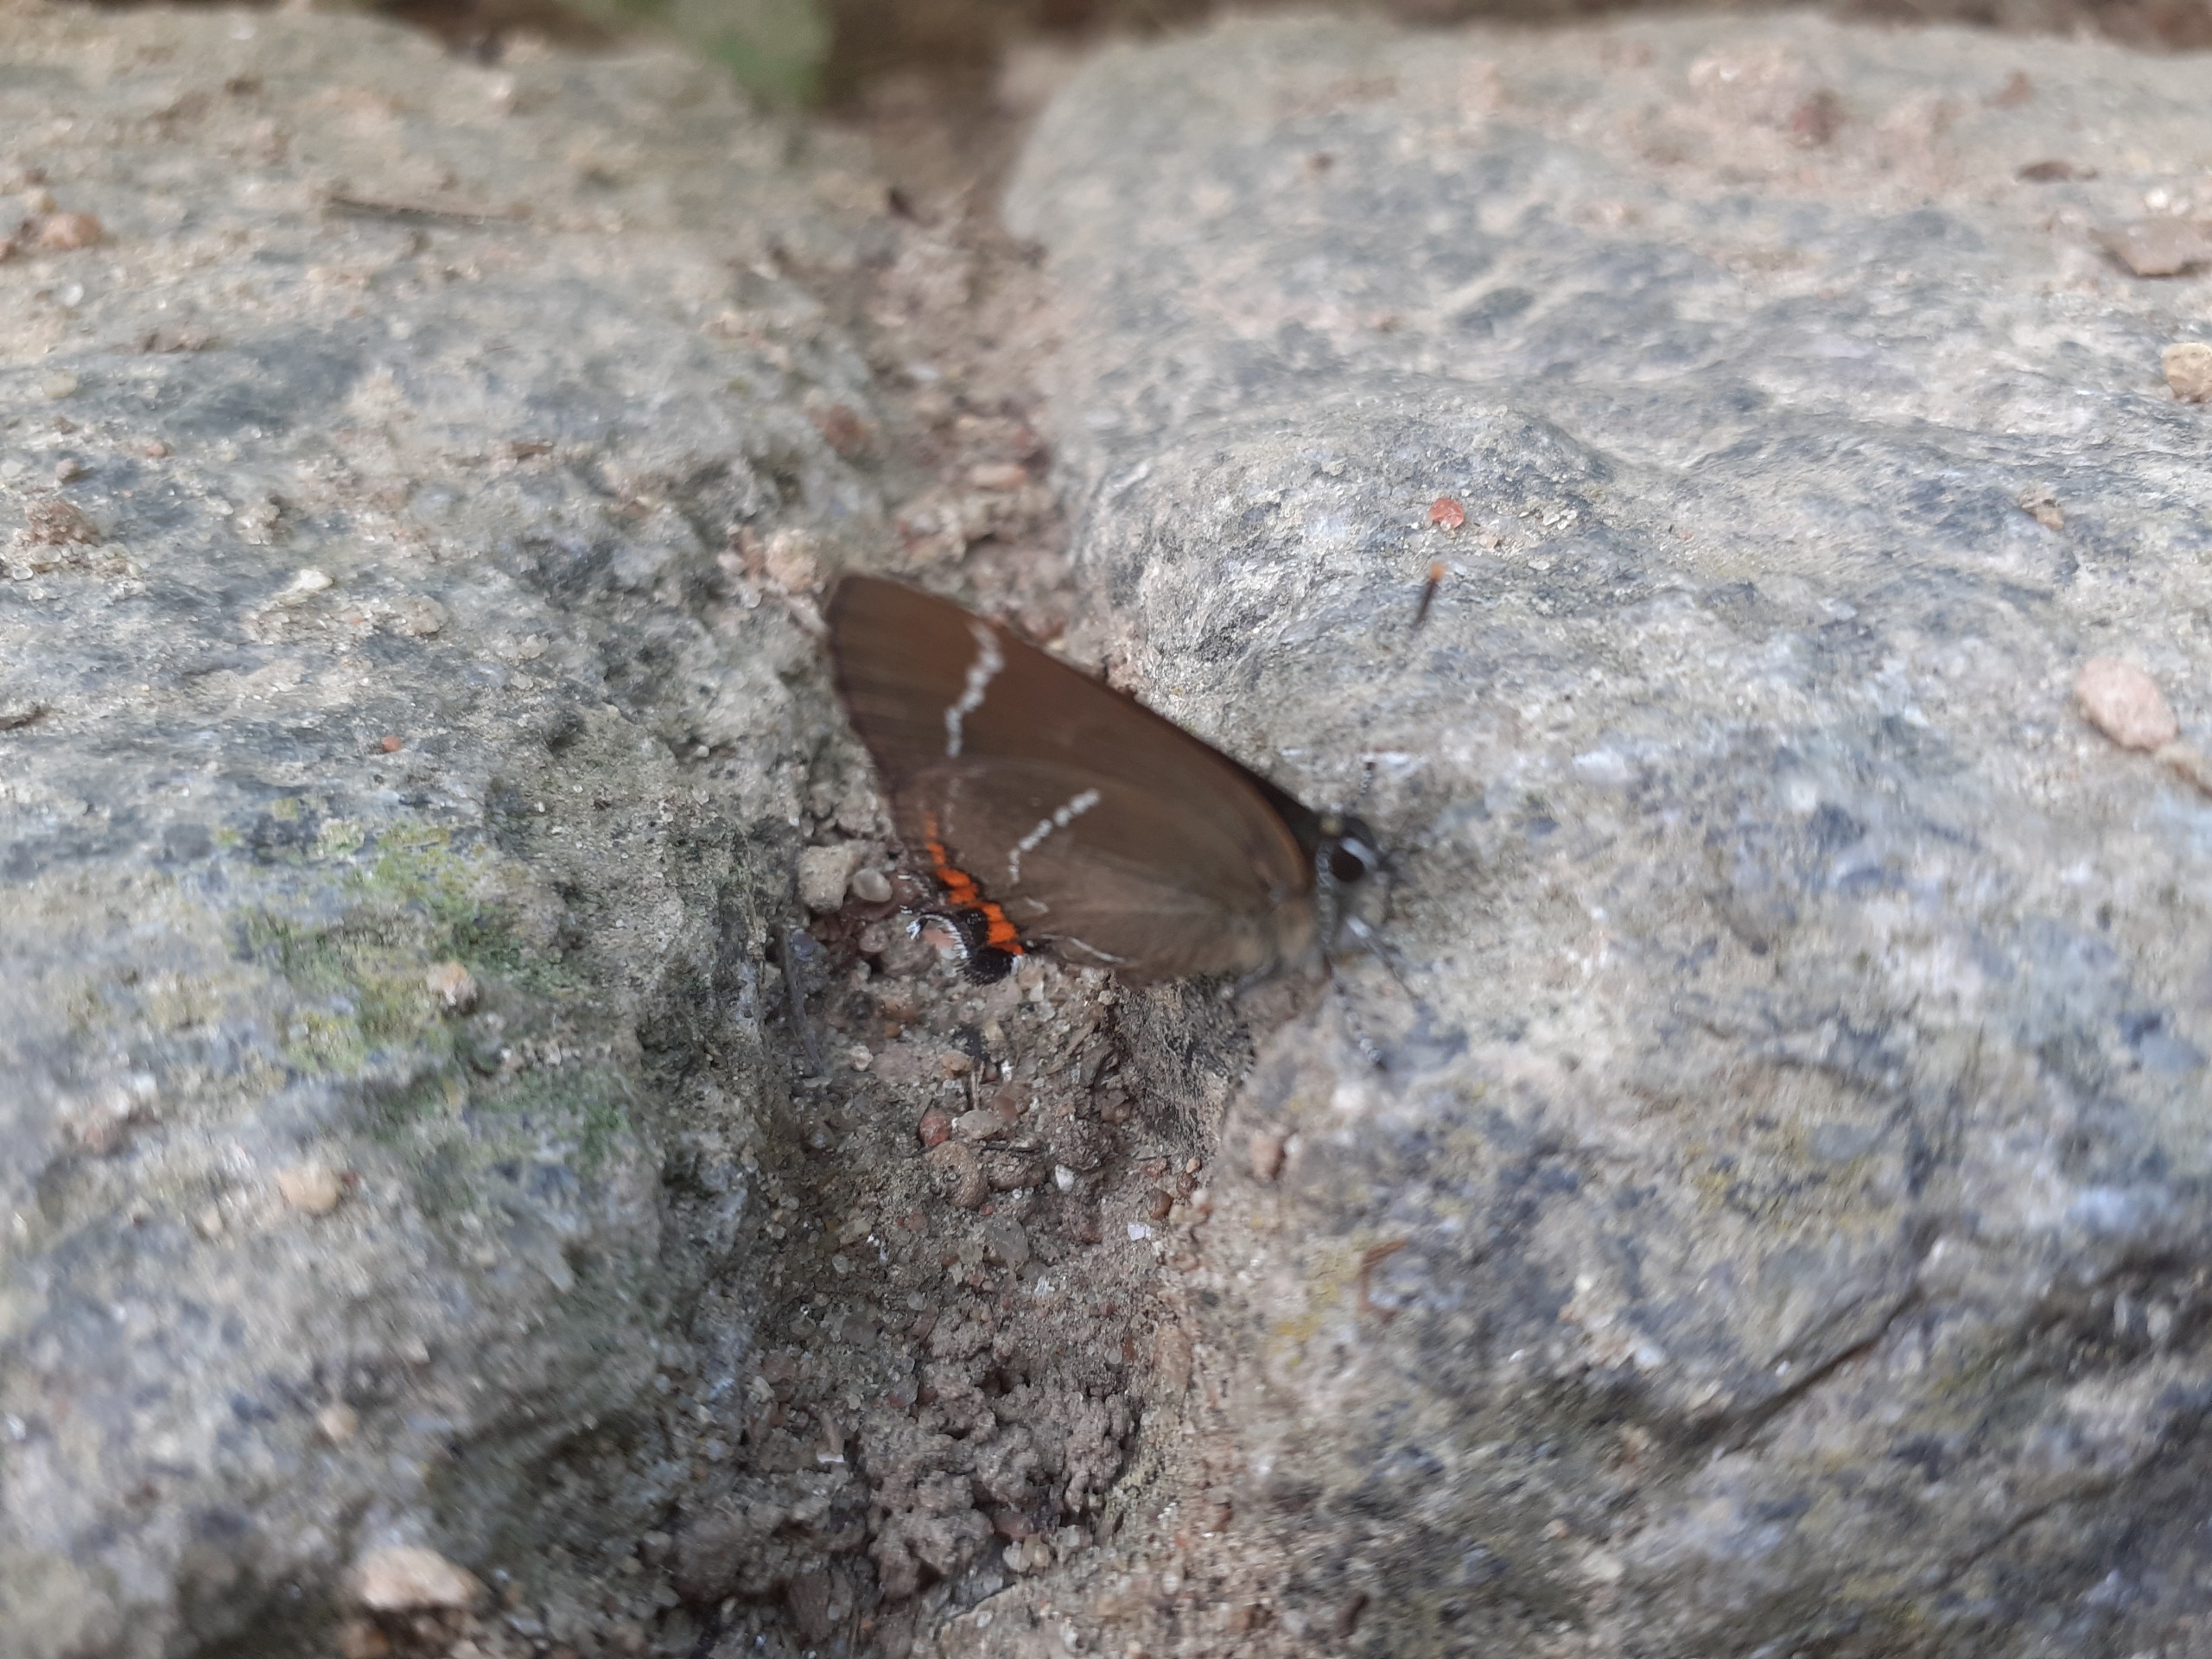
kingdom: Animalia
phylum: Arthropoda
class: Insecta
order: Lepidoptera
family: Lycaenidae
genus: Satyrium
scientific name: Satyrium w-album
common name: Det hvide W
